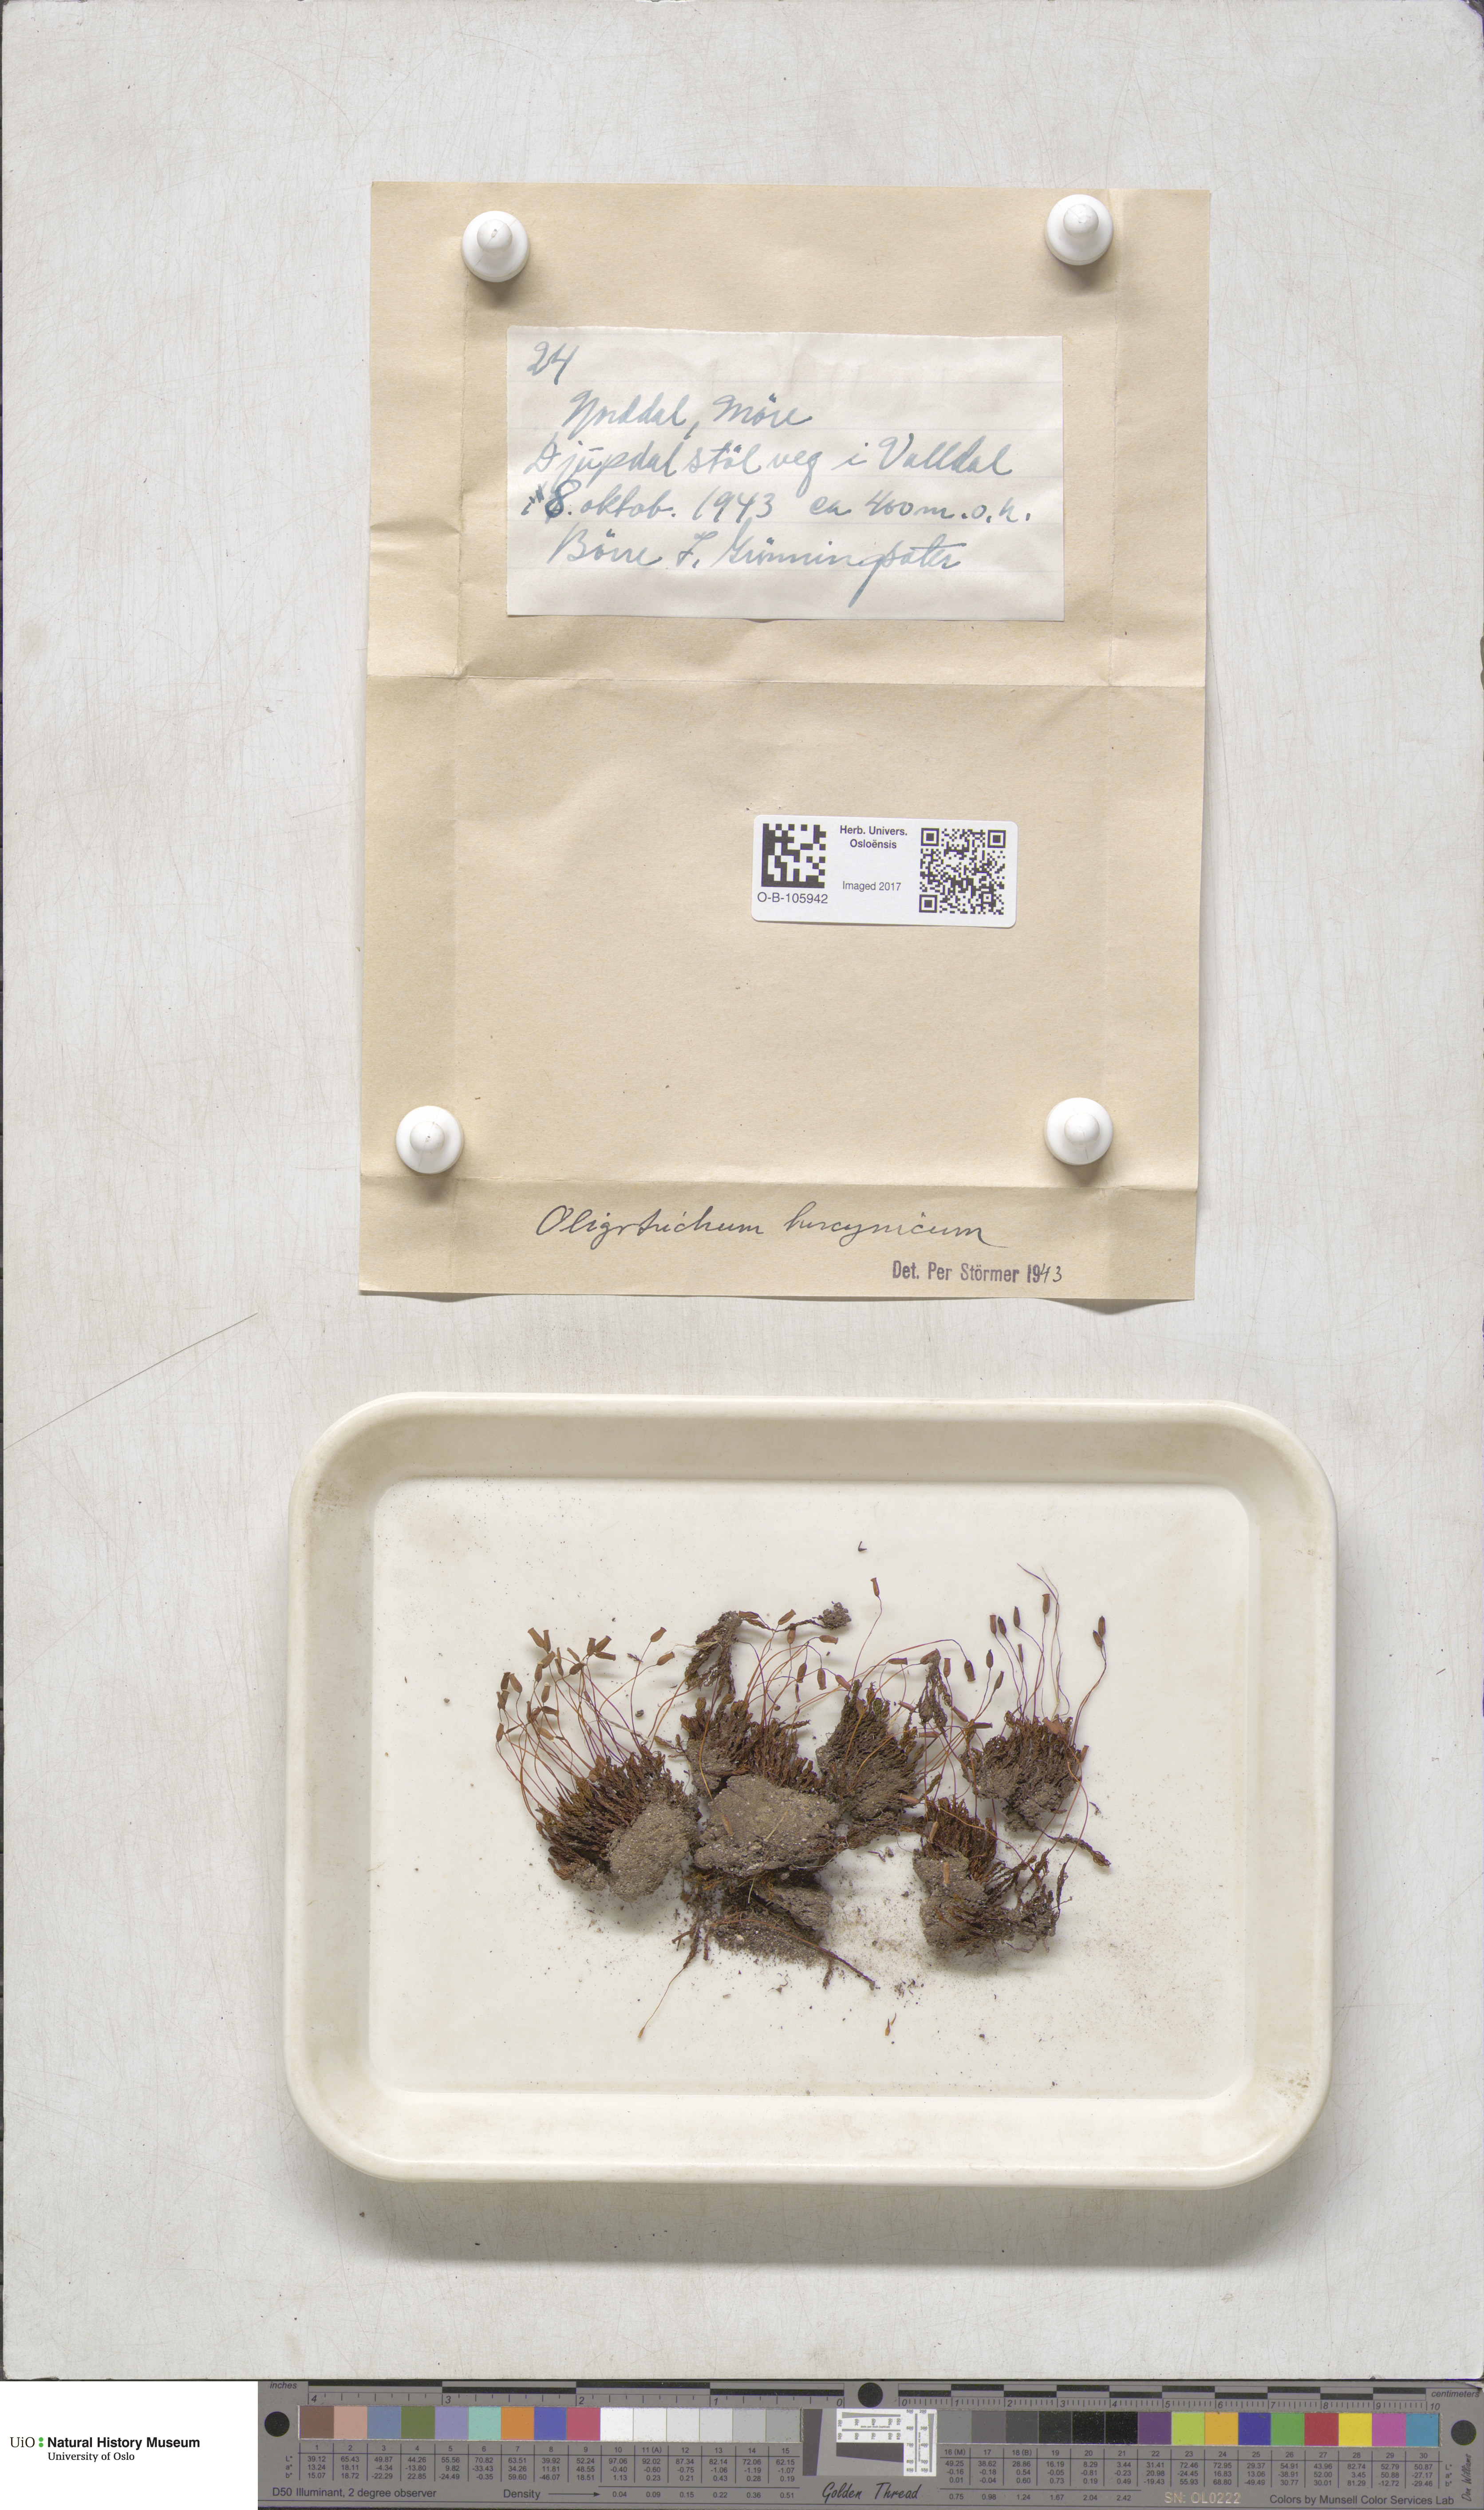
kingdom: Plantae
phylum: Bryophyta
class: Polytrichopsida
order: Polytrichales
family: Polytrichaceae
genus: Oligotrichum
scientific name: Oligotrichum hercynicum
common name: Hercynian hair moss
